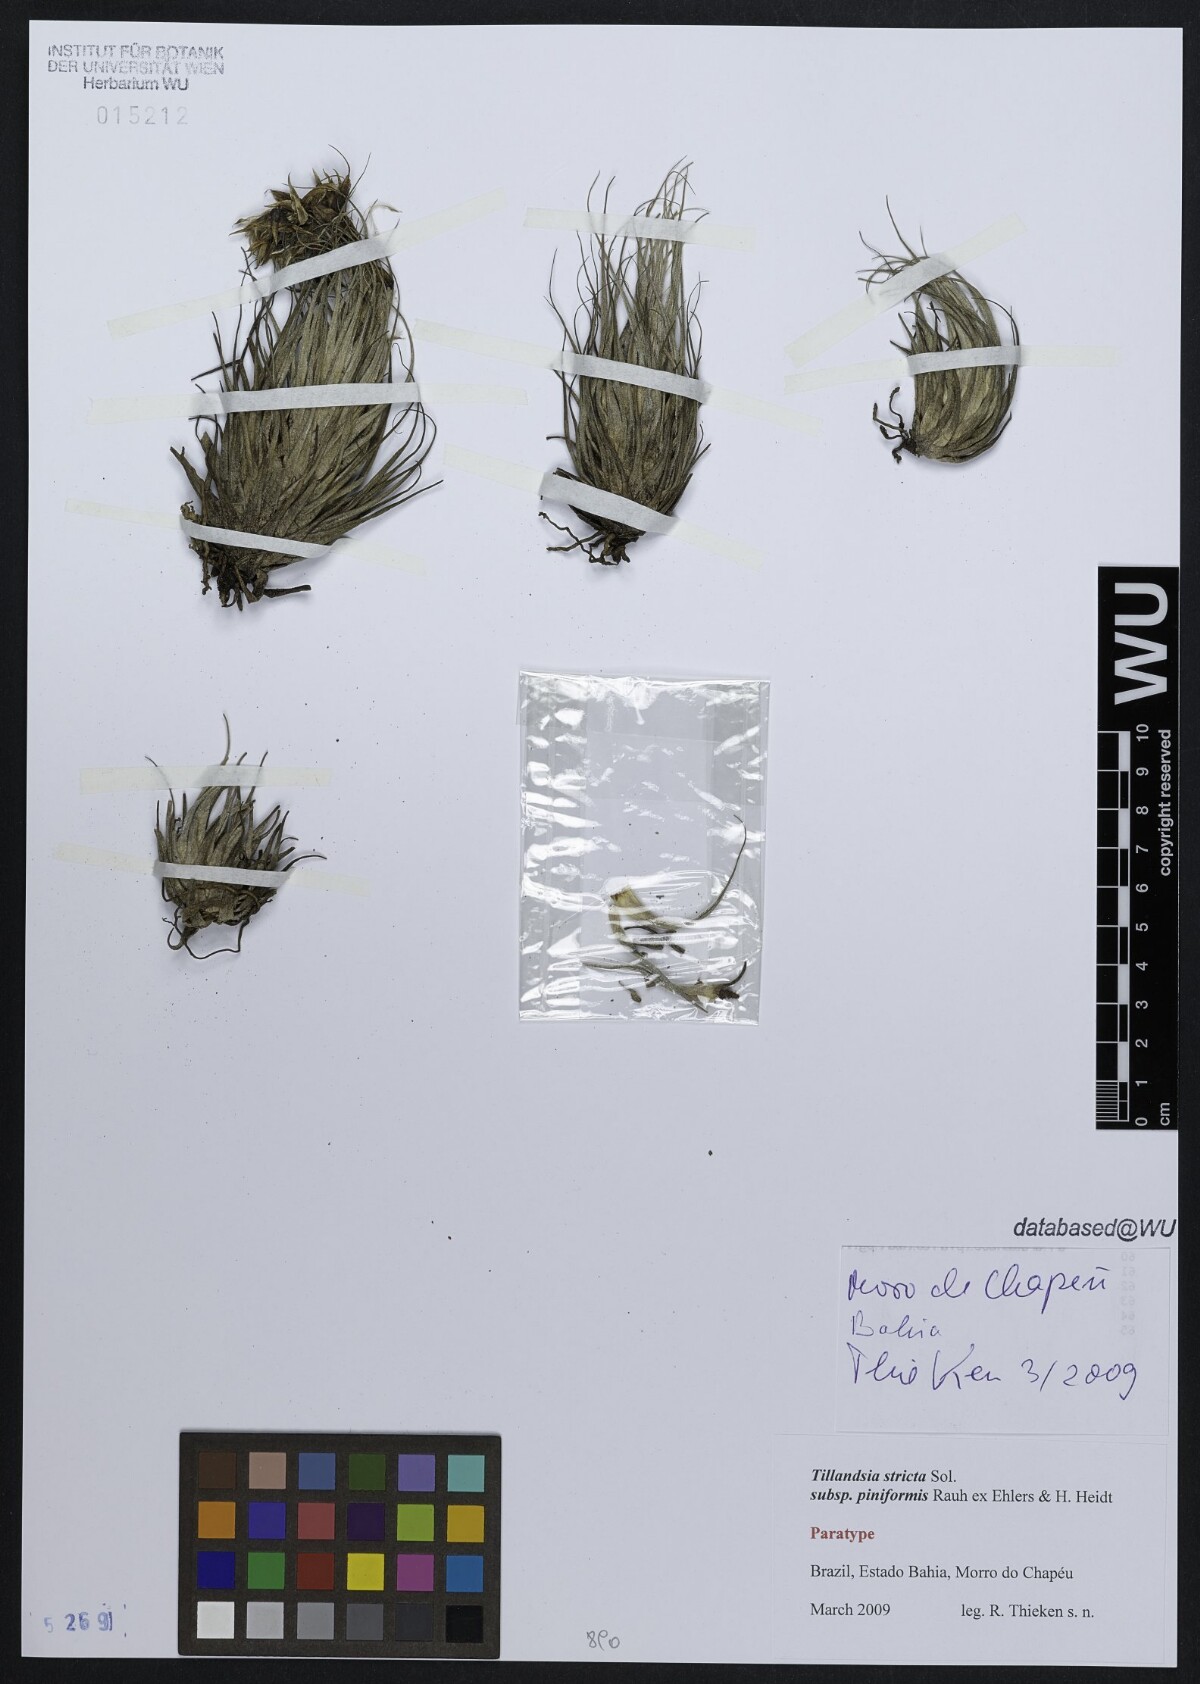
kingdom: Plantae
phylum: Tracheophyta
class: Liliopsida
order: Poales
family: Bromeliaceae
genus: Tillandsia
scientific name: Tillandsia stricta
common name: Airplant
